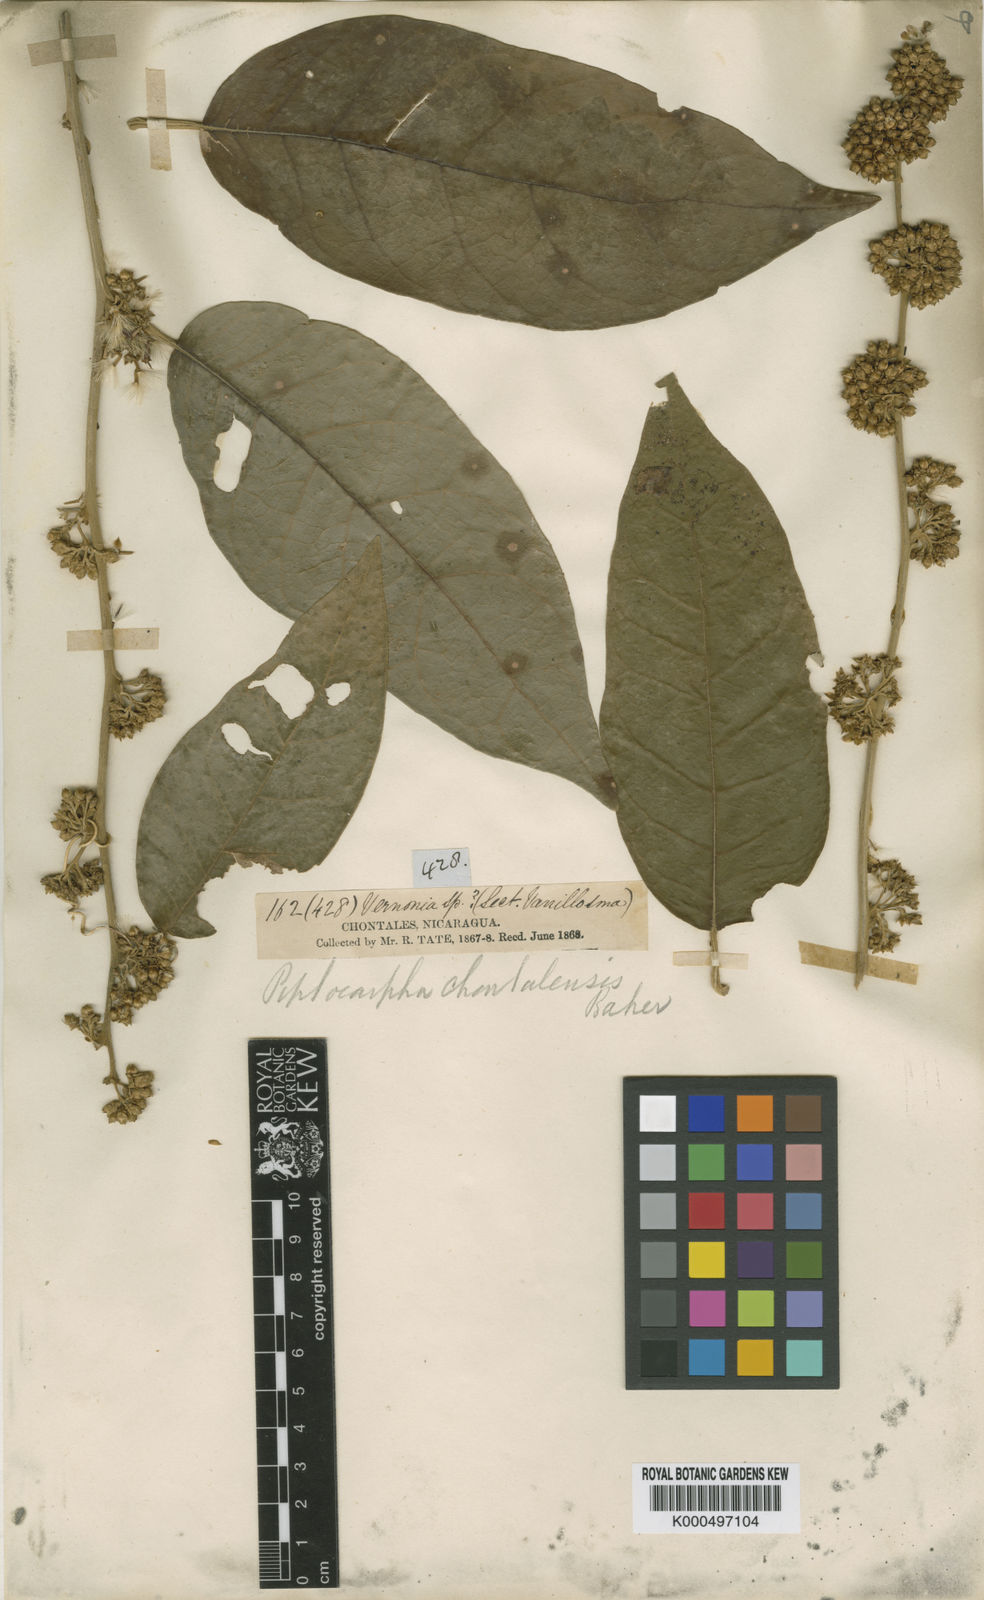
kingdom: Plantae
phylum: Tracheophyta
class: Magnoliopsida
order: Asterales
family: Asteraceae
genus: Piptocarpha
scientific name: Piptocarpha poeppigiana
